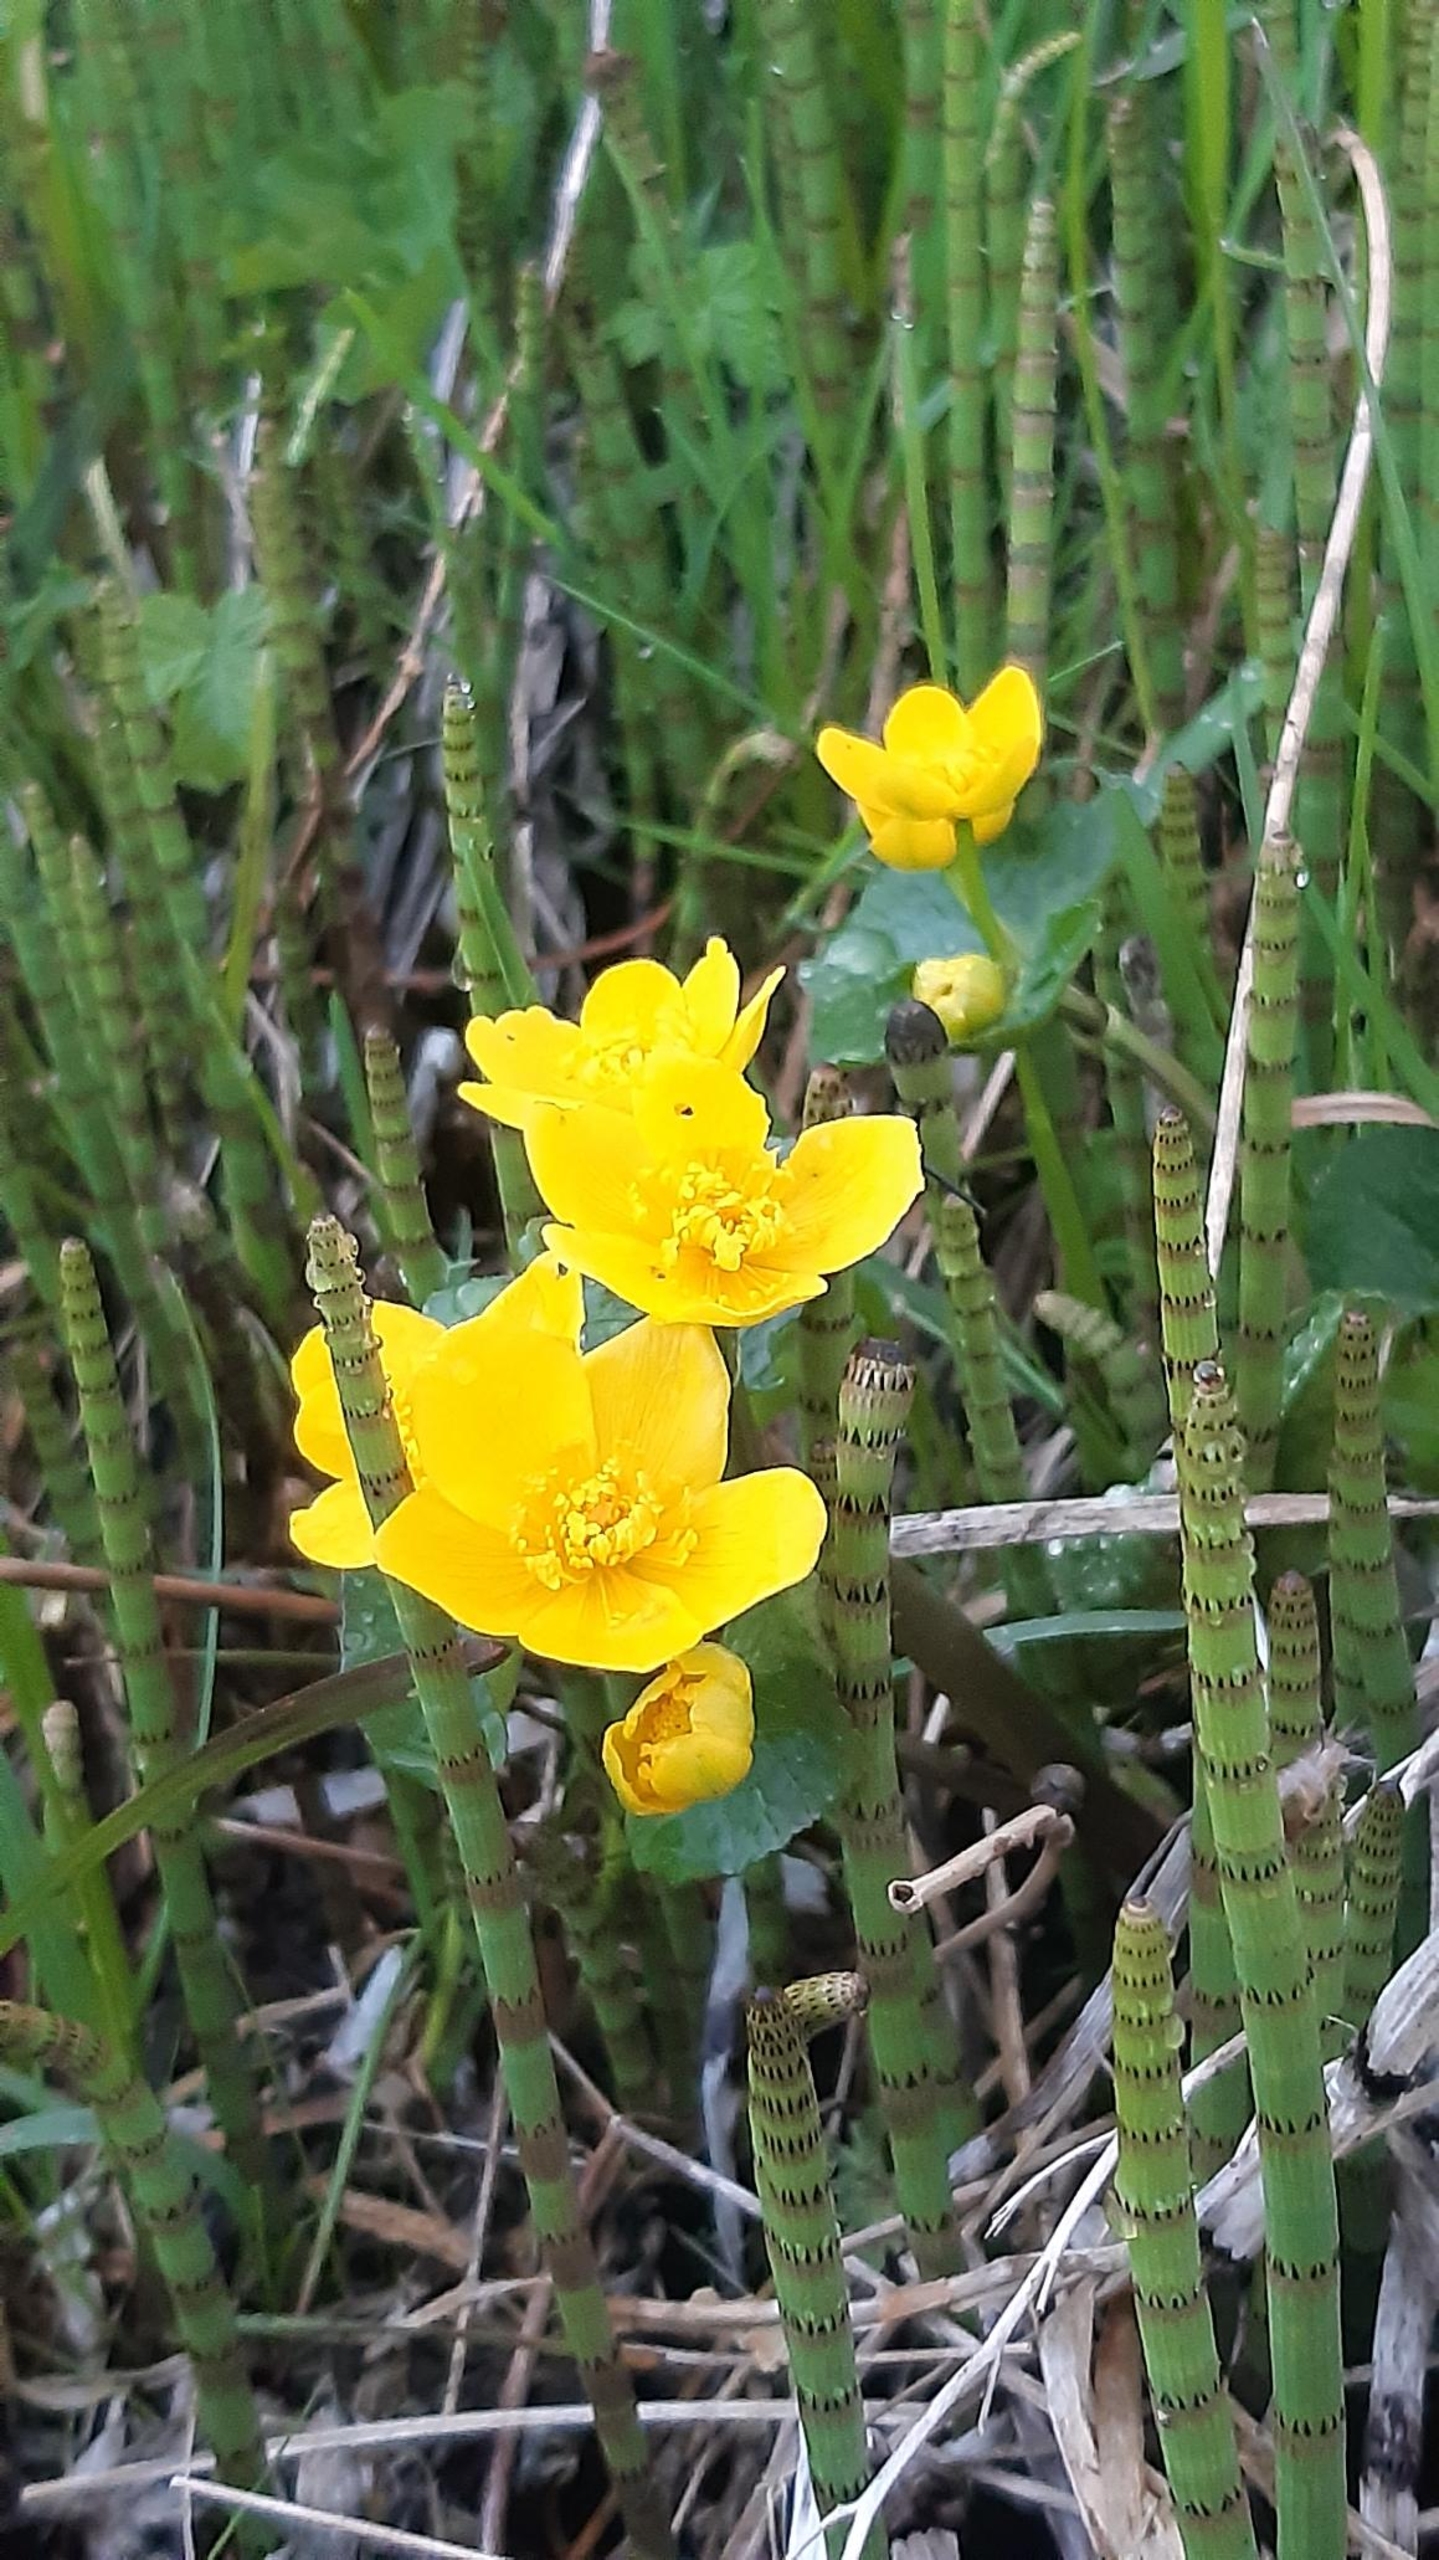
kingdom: Plantae
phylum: Tracheophyta
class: Magnoliopsida
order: Ranunculales
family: Ranunculaceae
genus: Caltha
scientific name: Caltha palustris
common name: Eng-kabbeleje
